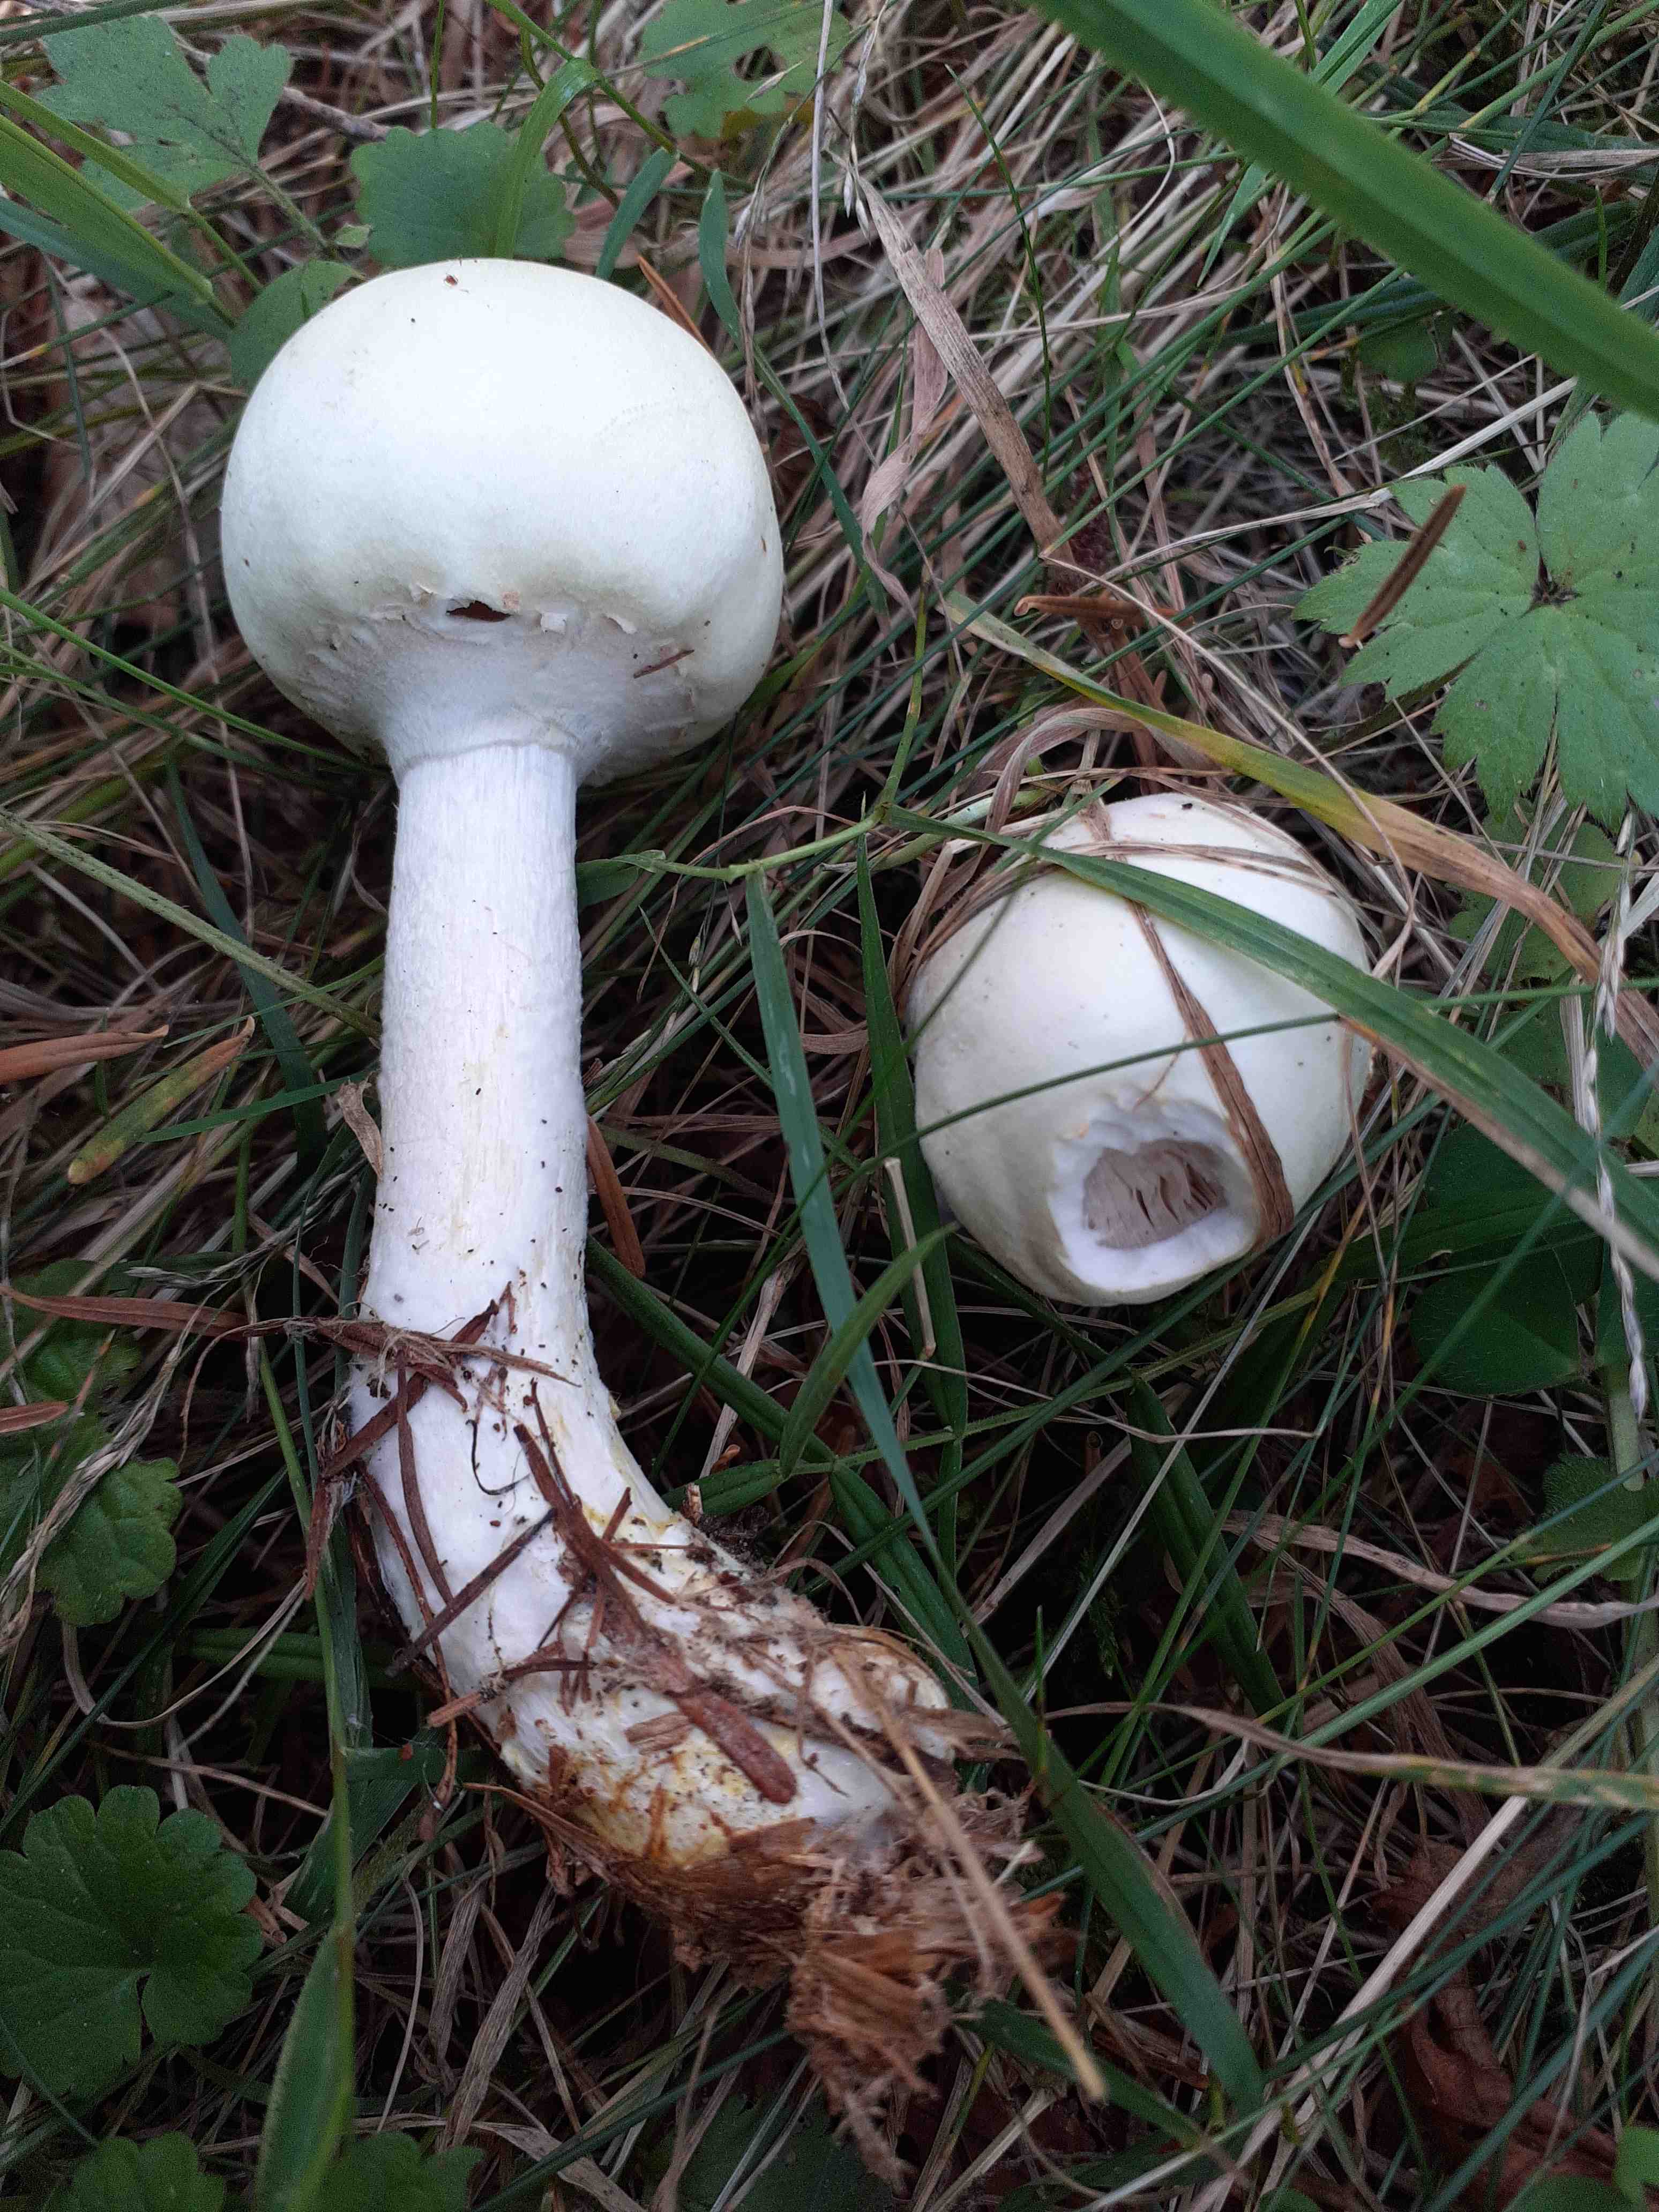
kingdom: Fungi
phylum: Basidiomycota
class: Agaricomycetes
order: Agaricales
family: Agaricaceae
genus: Agaricus
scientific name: Agaricus sylvicola
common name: gulhvid champignon
